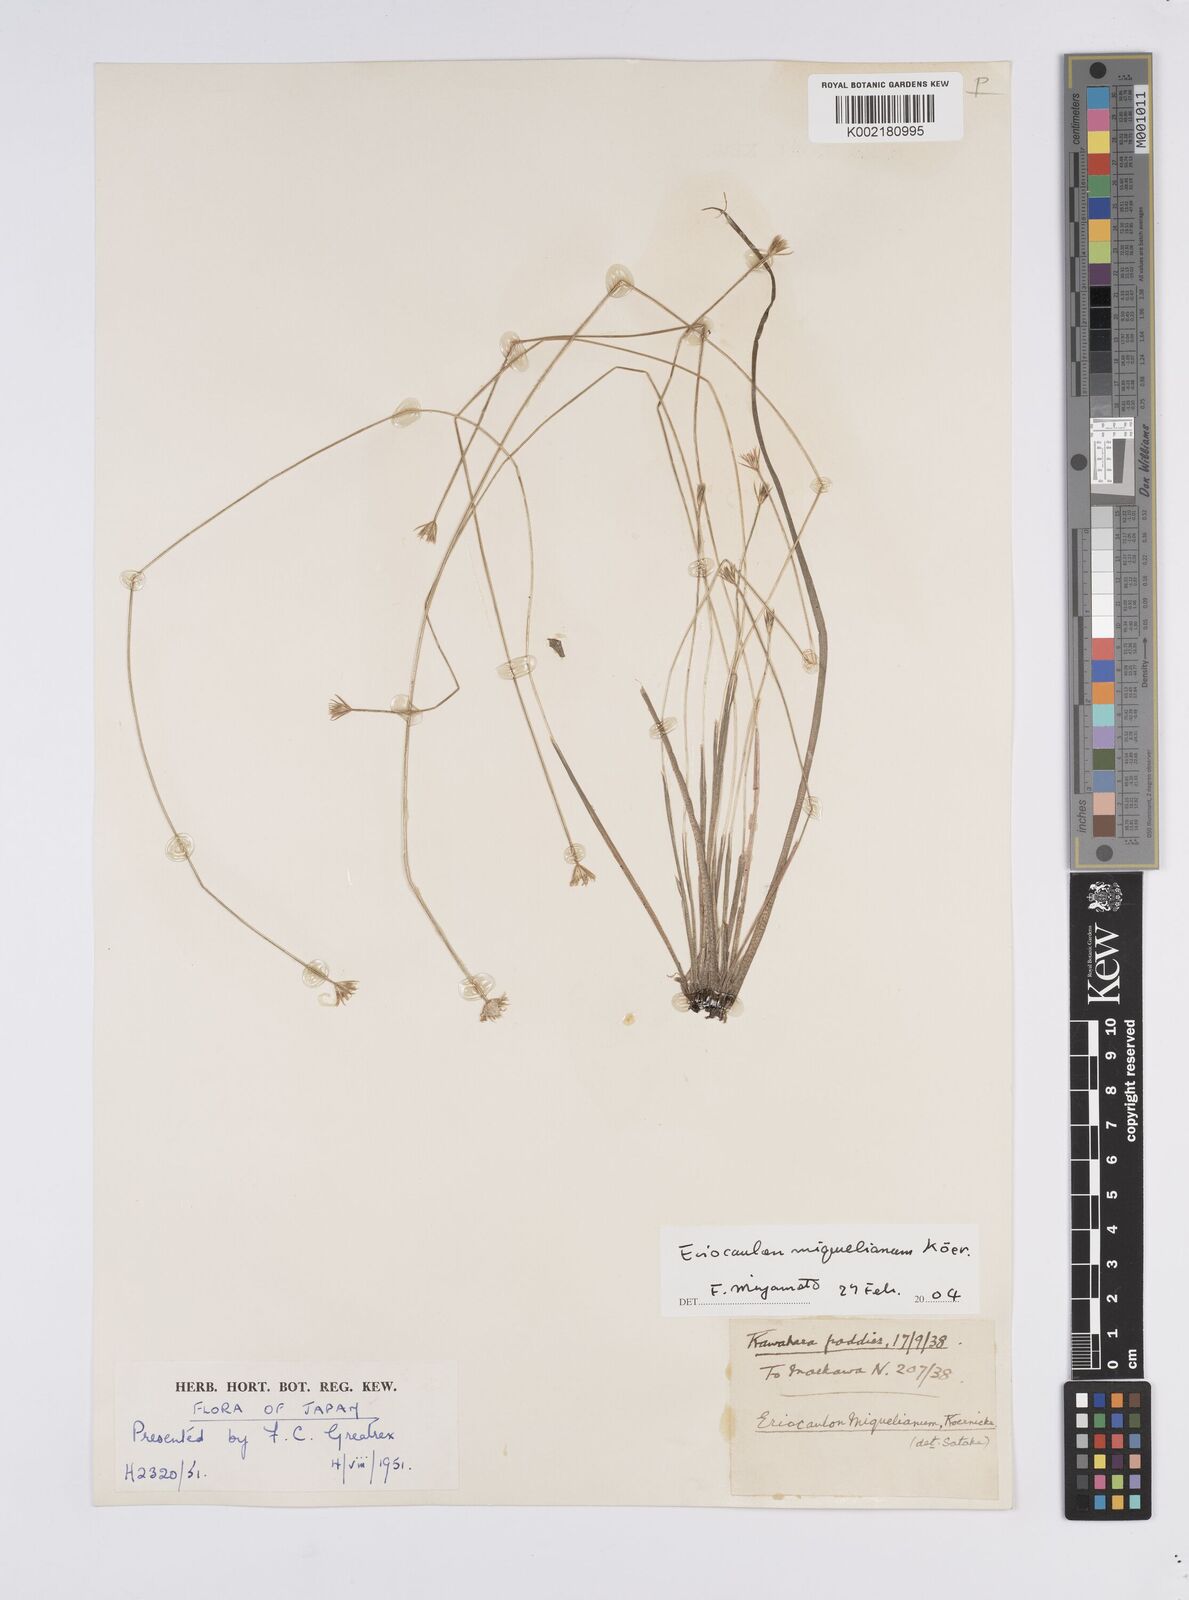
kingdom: Plantae
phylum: Tracheophyta
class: Liliopsida
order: Poales
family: Eriocaulaceae
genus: Eriocaulon
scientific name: Eriocaulon miquelianum
